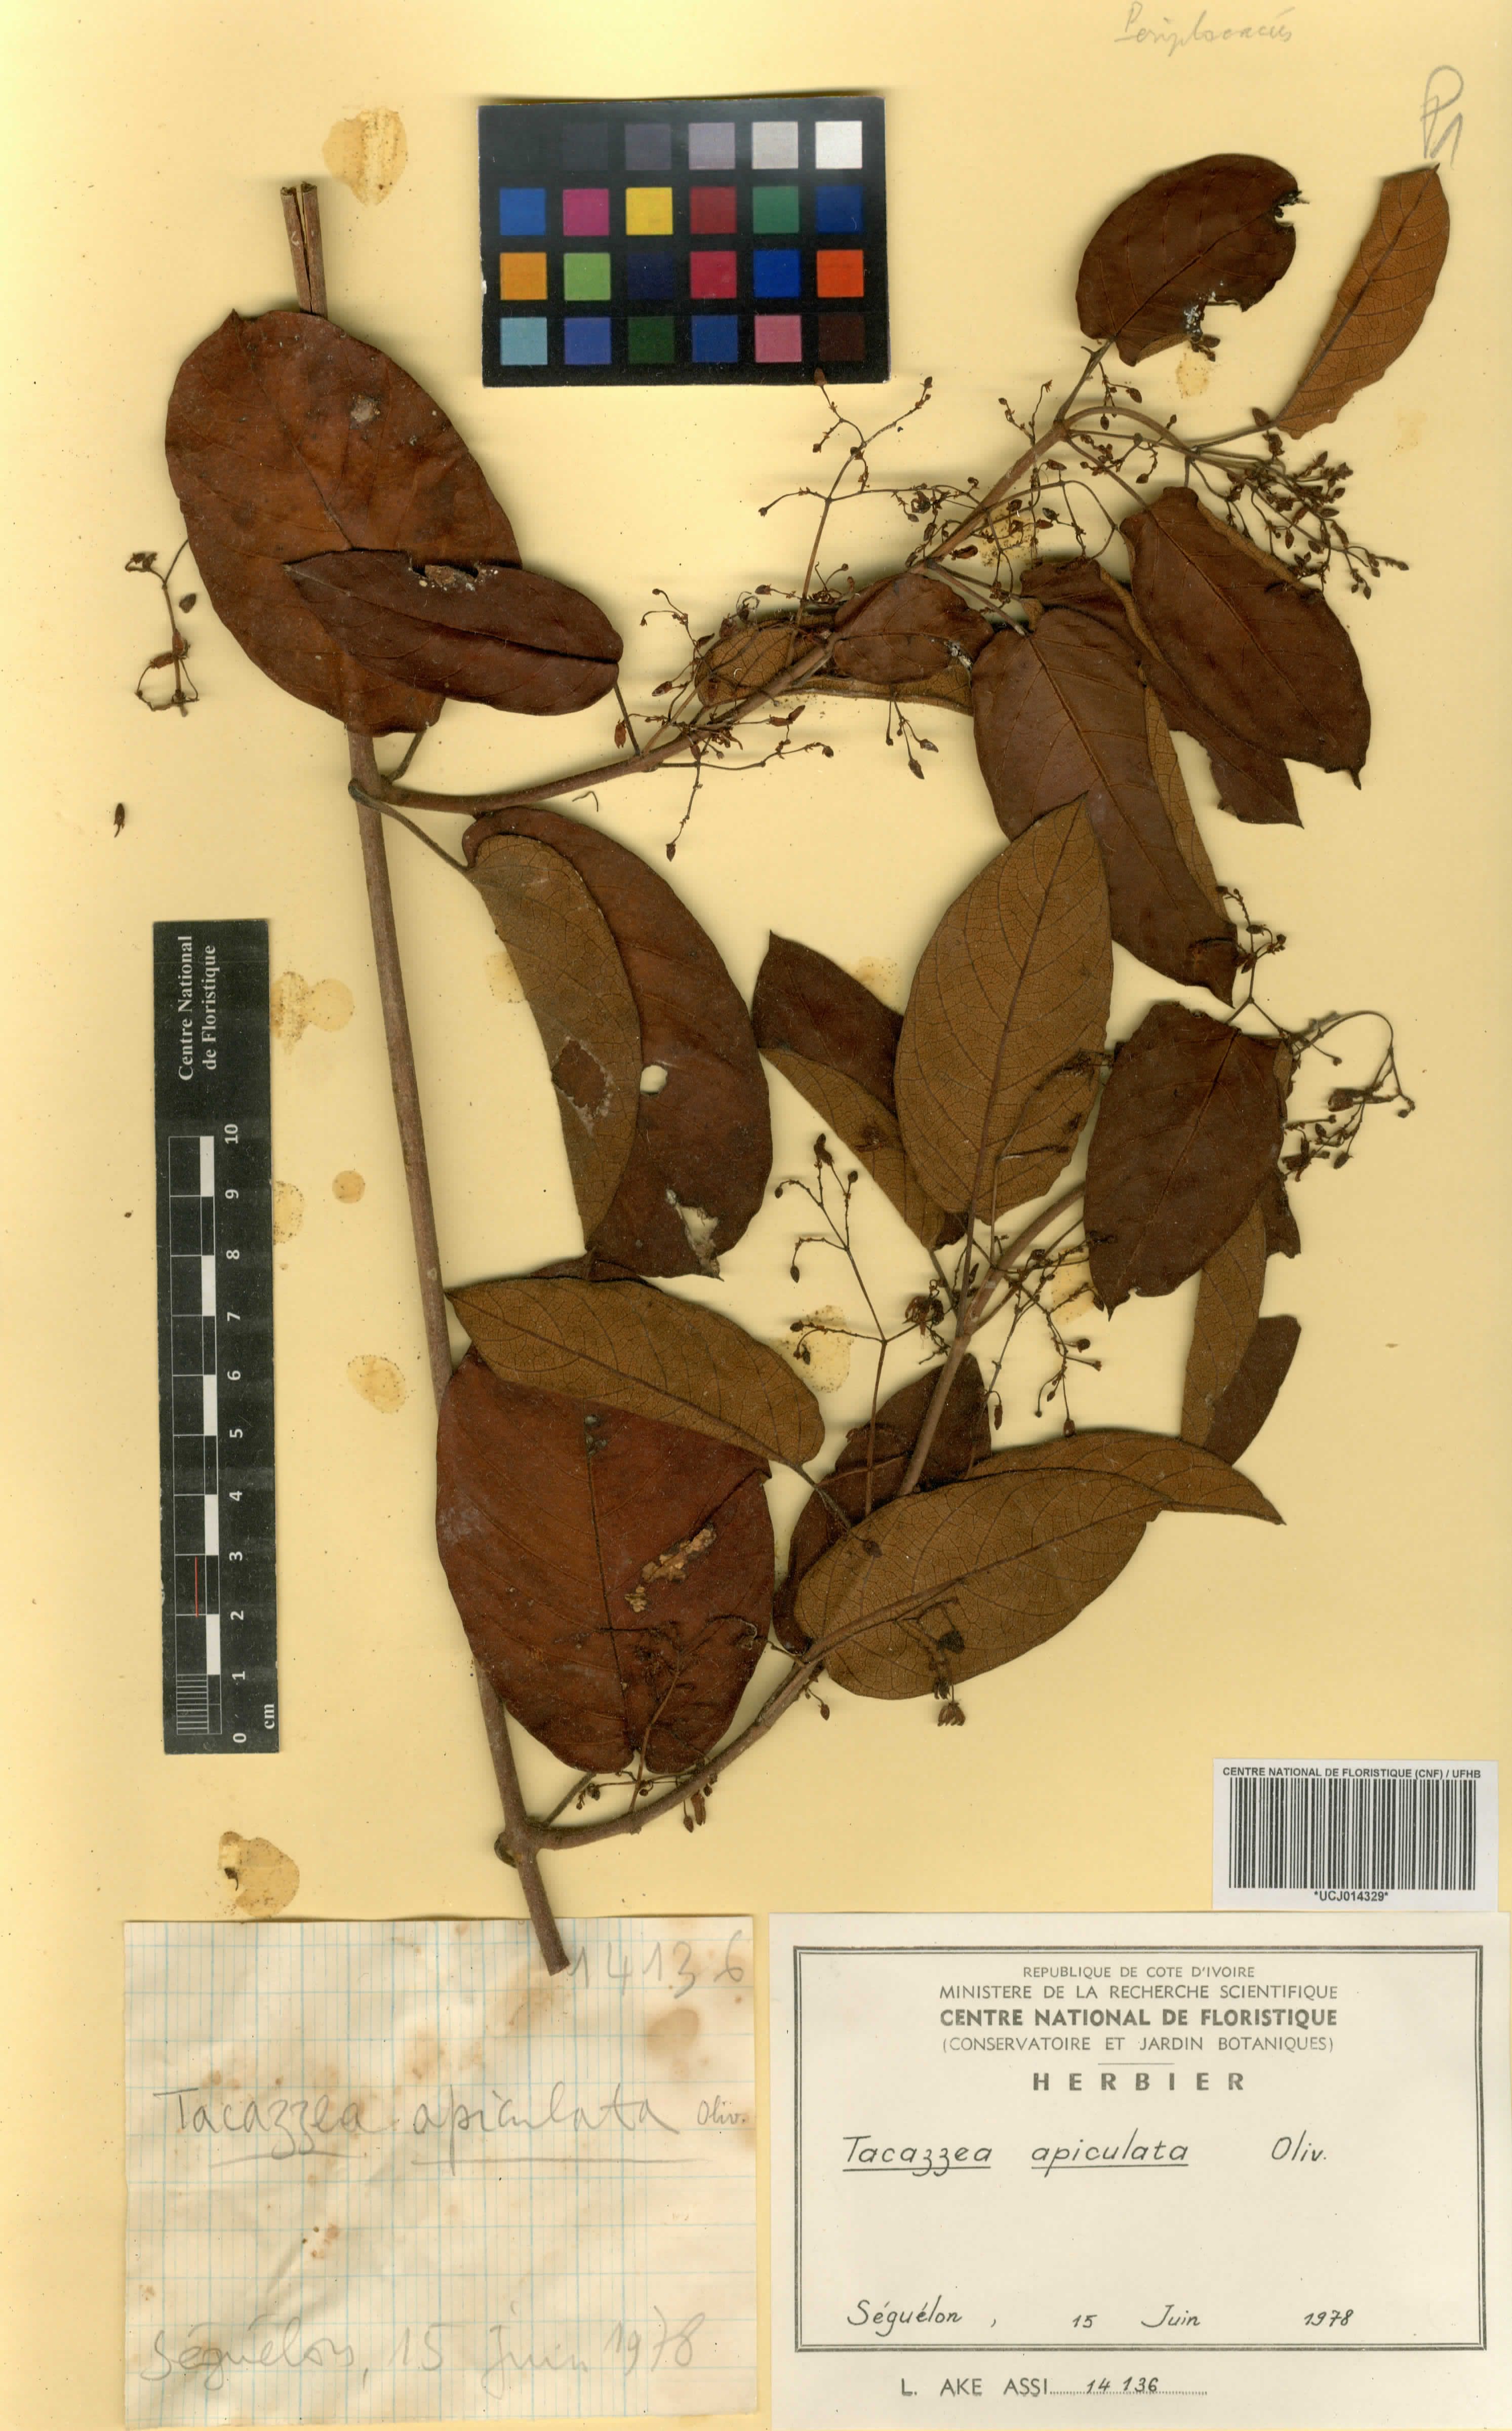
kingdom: Plantae
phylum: Tracheophyta
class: Magnoliopsida
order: Gentianales
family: Apocynaceae
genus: Tacazzea
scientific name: Tacazzea apiculata
